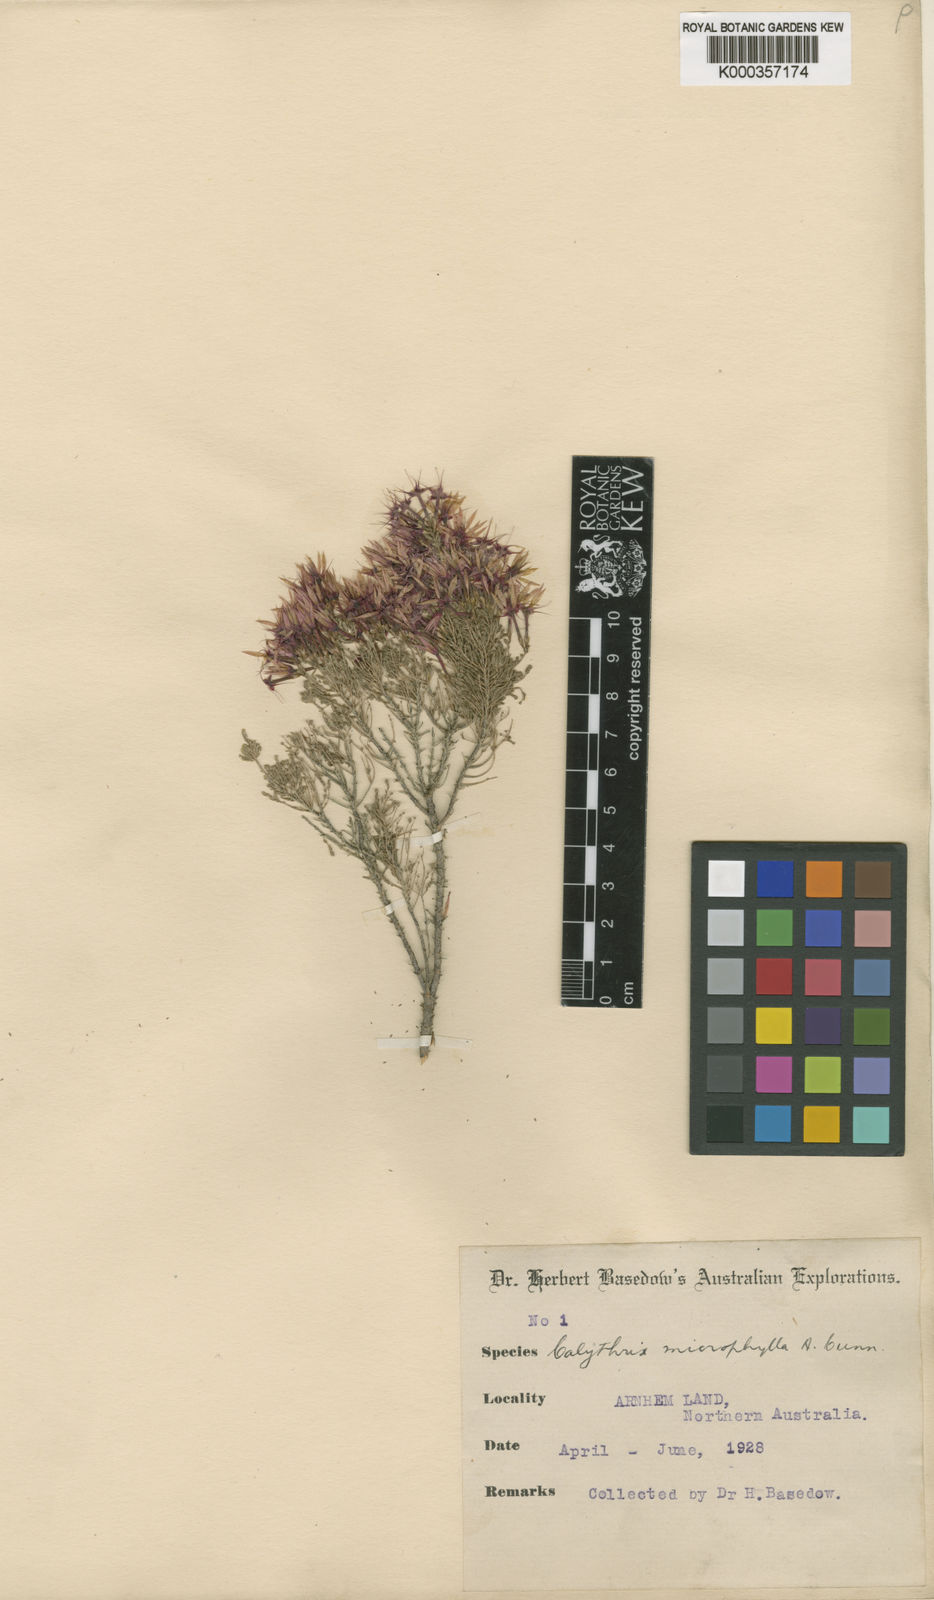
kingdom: Plantae
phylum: Tracheophyta
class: Magnoliopsida
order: Myrtales
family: Myrtaceae
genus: Calytrix
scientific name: Calytrix exstipulata
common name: Kimberley heather
